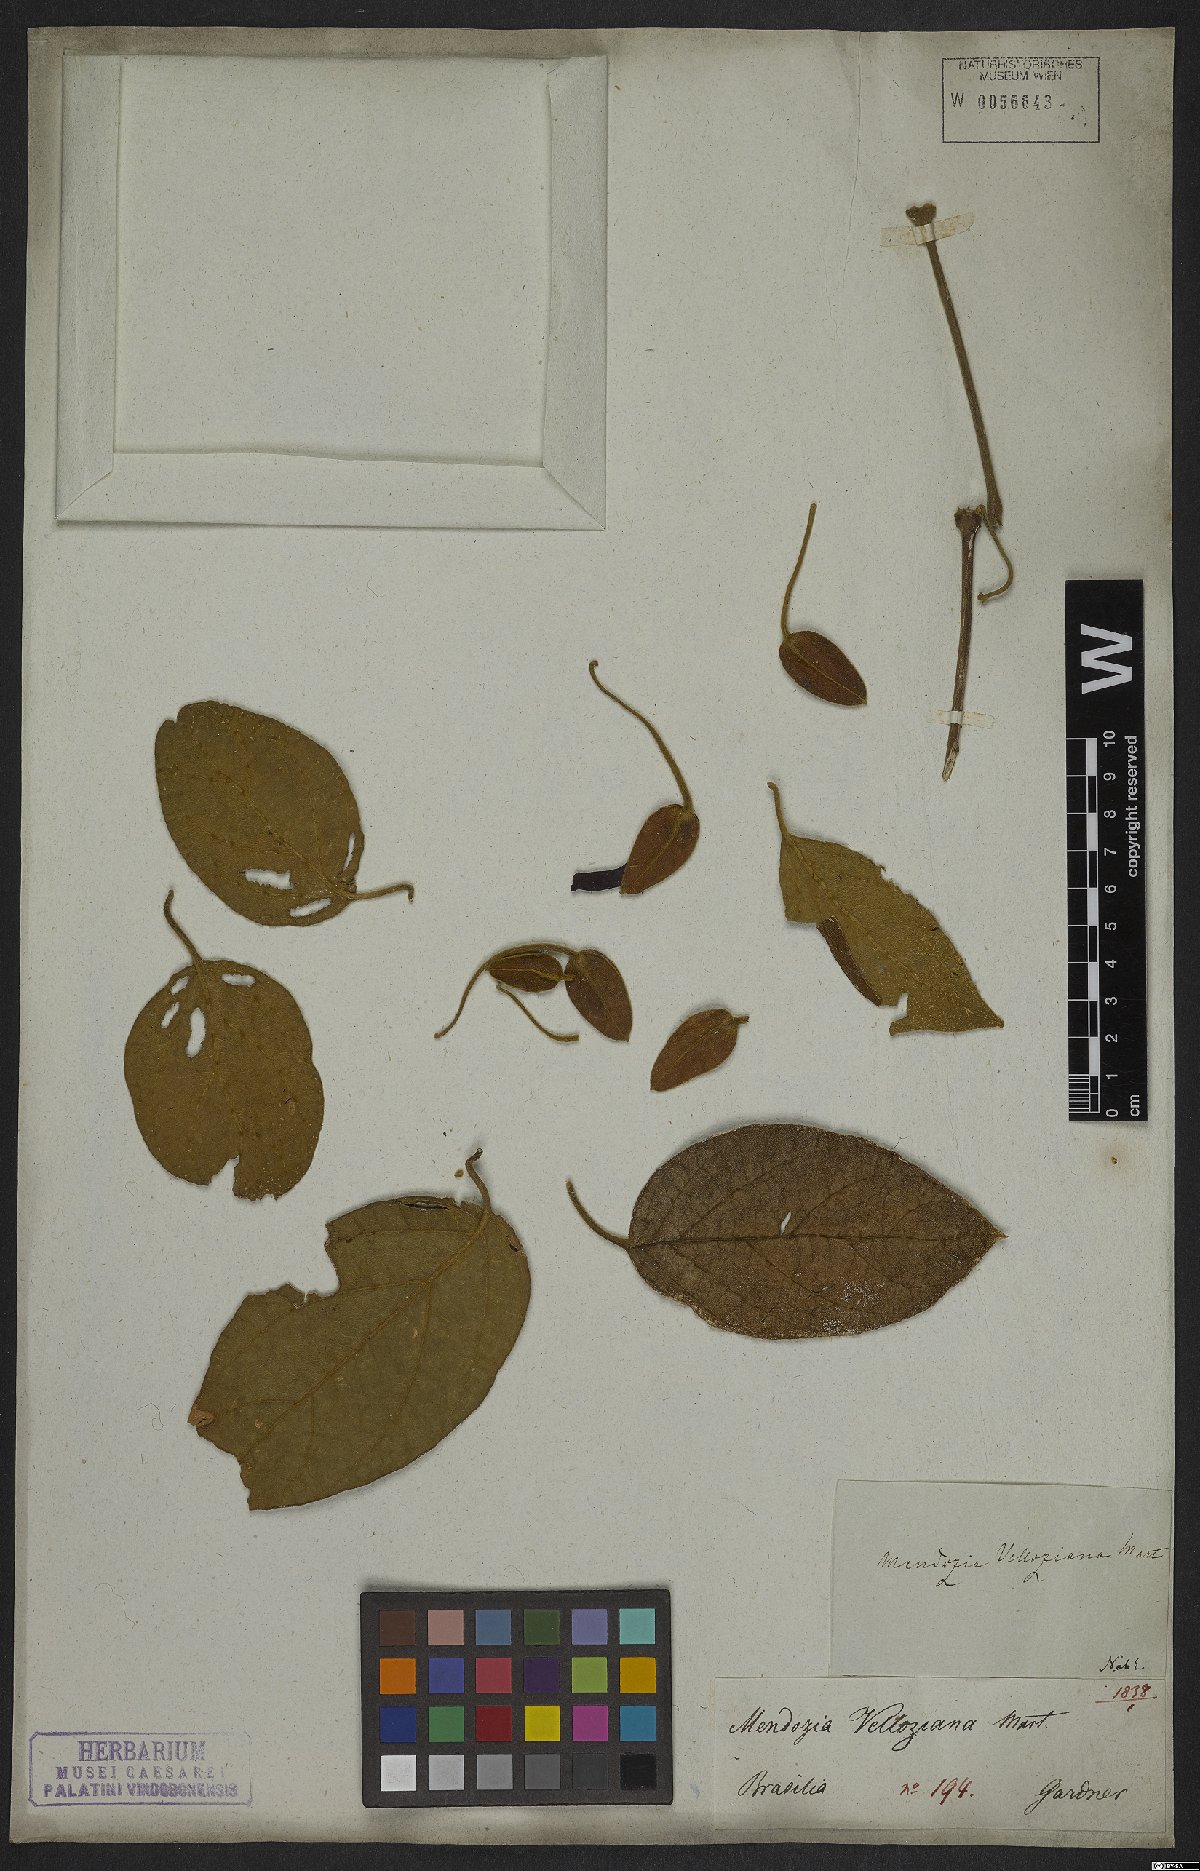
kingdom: Plantae
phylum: Tracheophyta
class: Magnoliopsida
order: Lamiales
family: Acanthaceae
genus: Mendoncia
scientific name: Mendoncia velloziana
